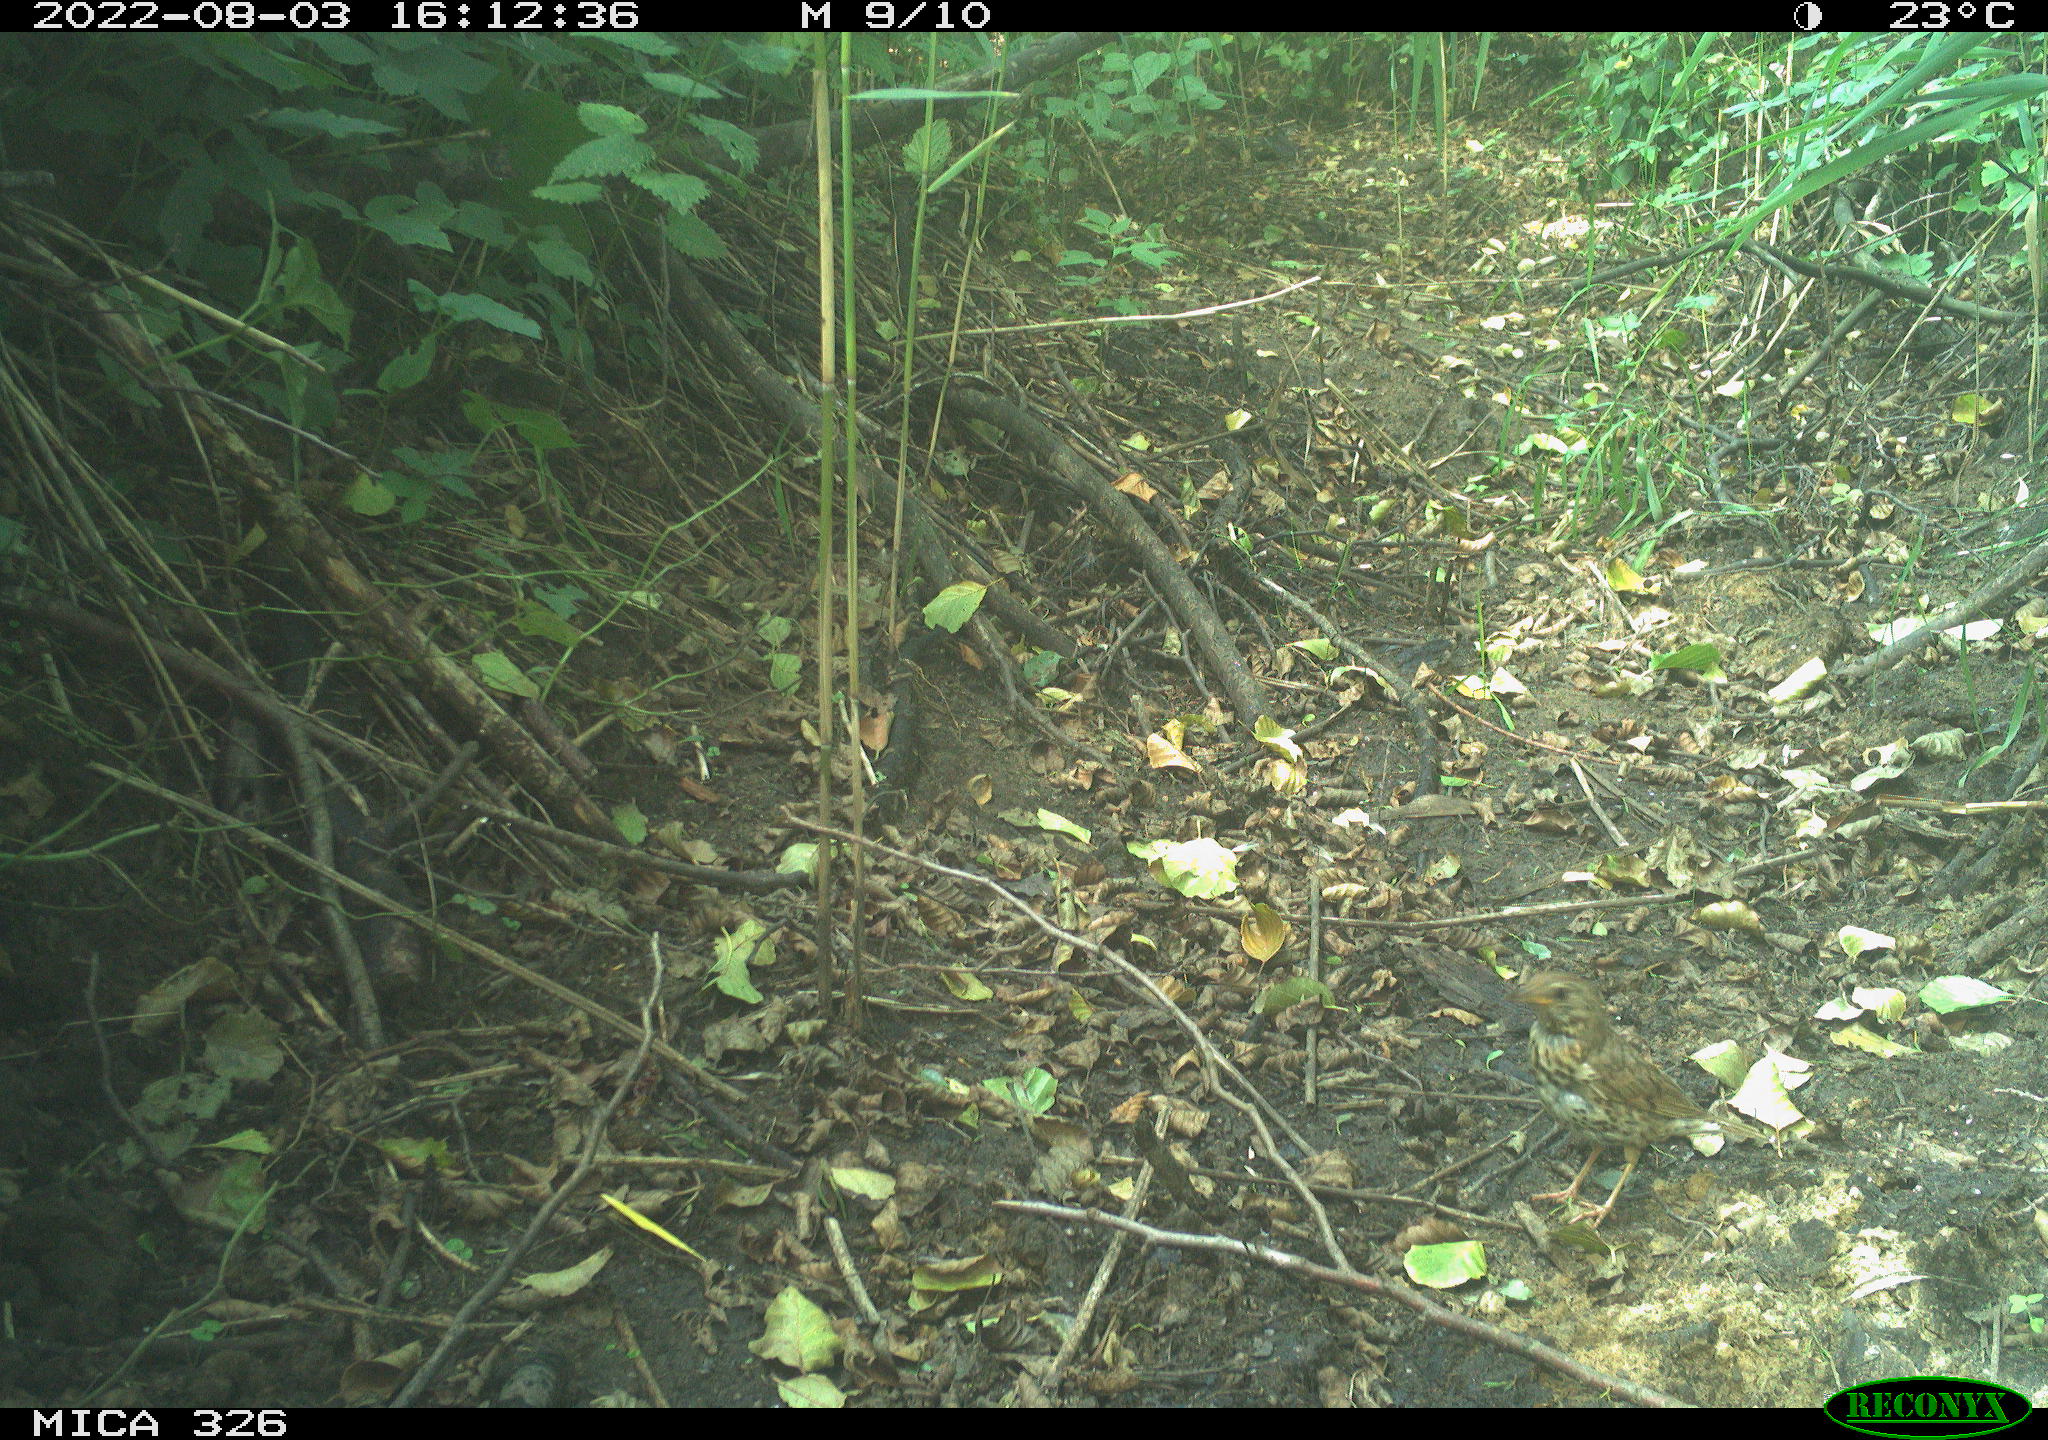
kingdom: Animalia
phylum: Chordata
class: Aves
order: Passeriformes
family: Turdidae
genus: Turdus
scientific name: Turdus philomelos
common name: Song thrush
